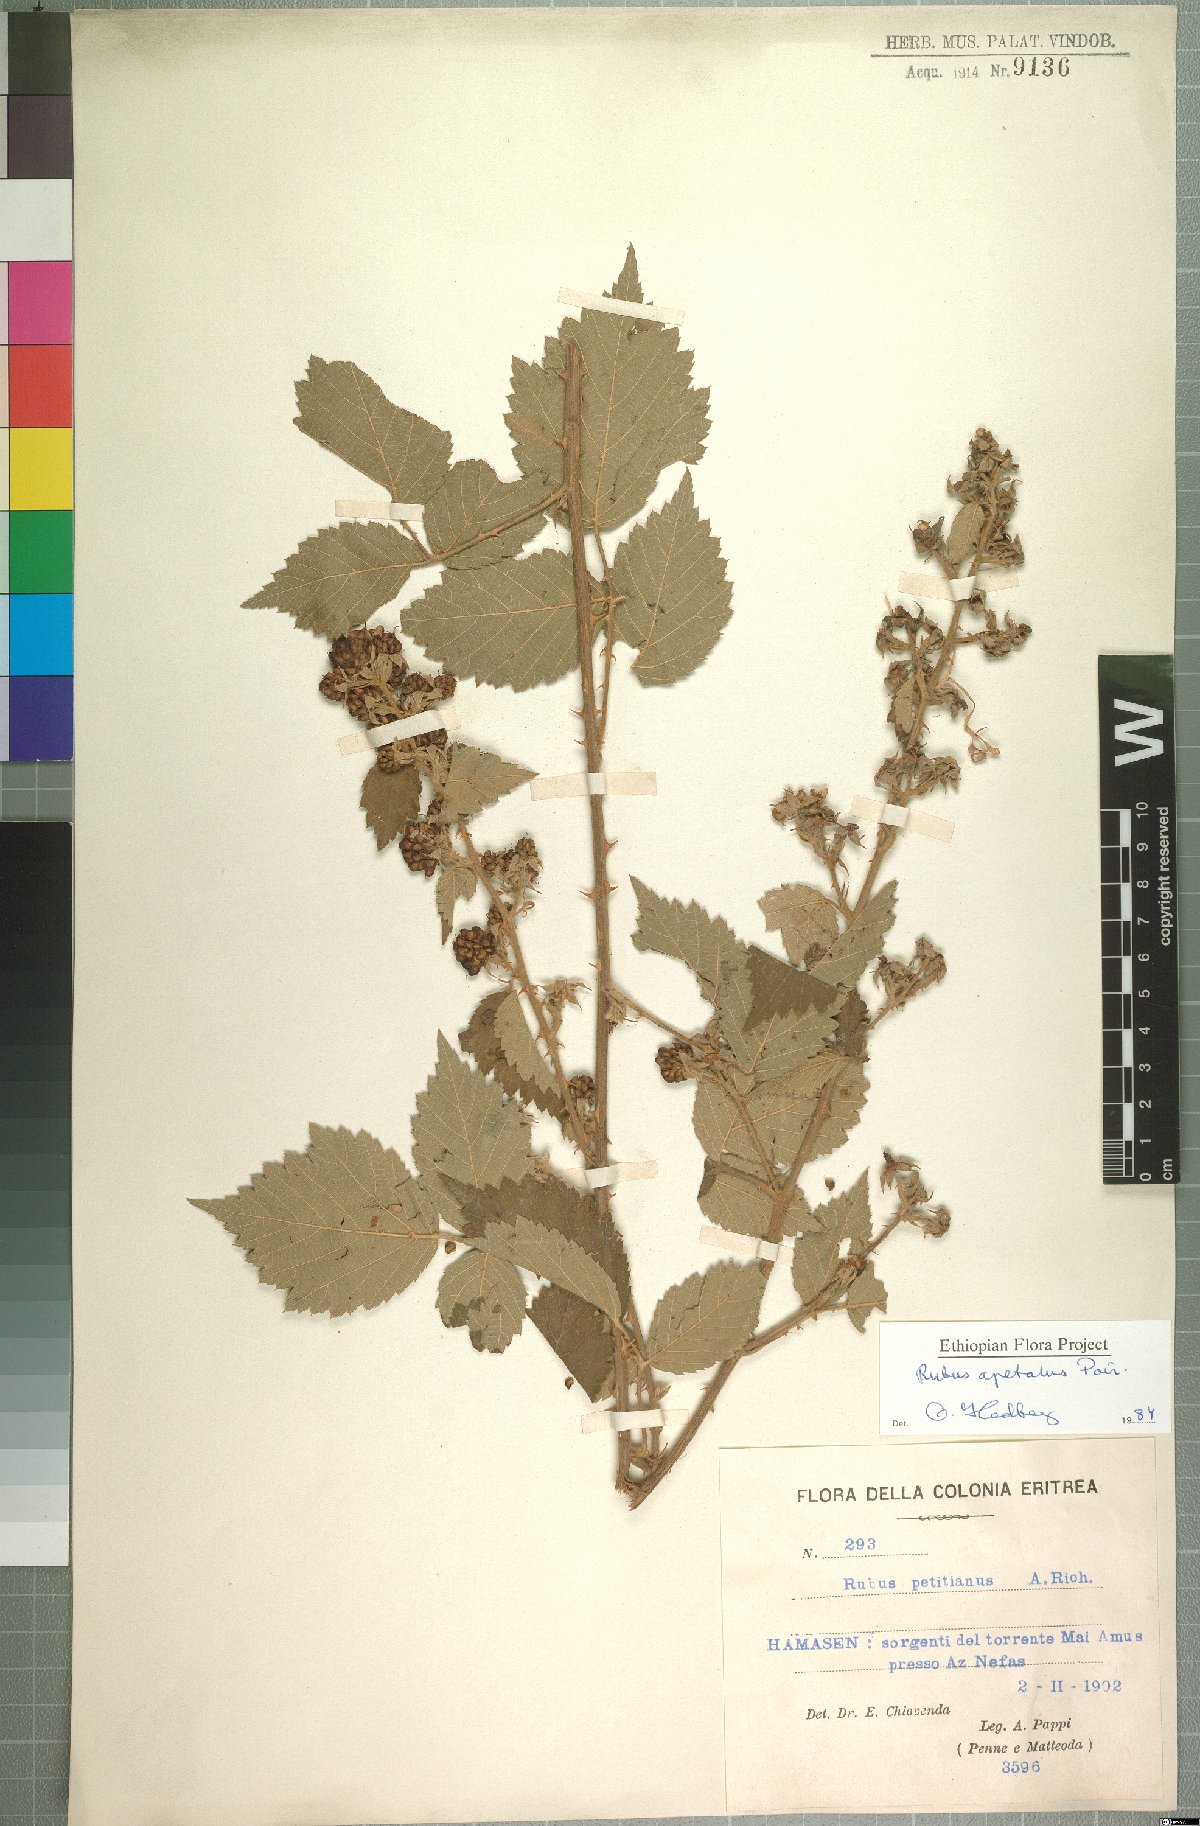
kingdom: Plantae
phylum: Tracheophyta
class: Magnoliopsida
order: Rosales
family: Rosaceae
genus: Rubus
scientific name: Rubus apetalus
